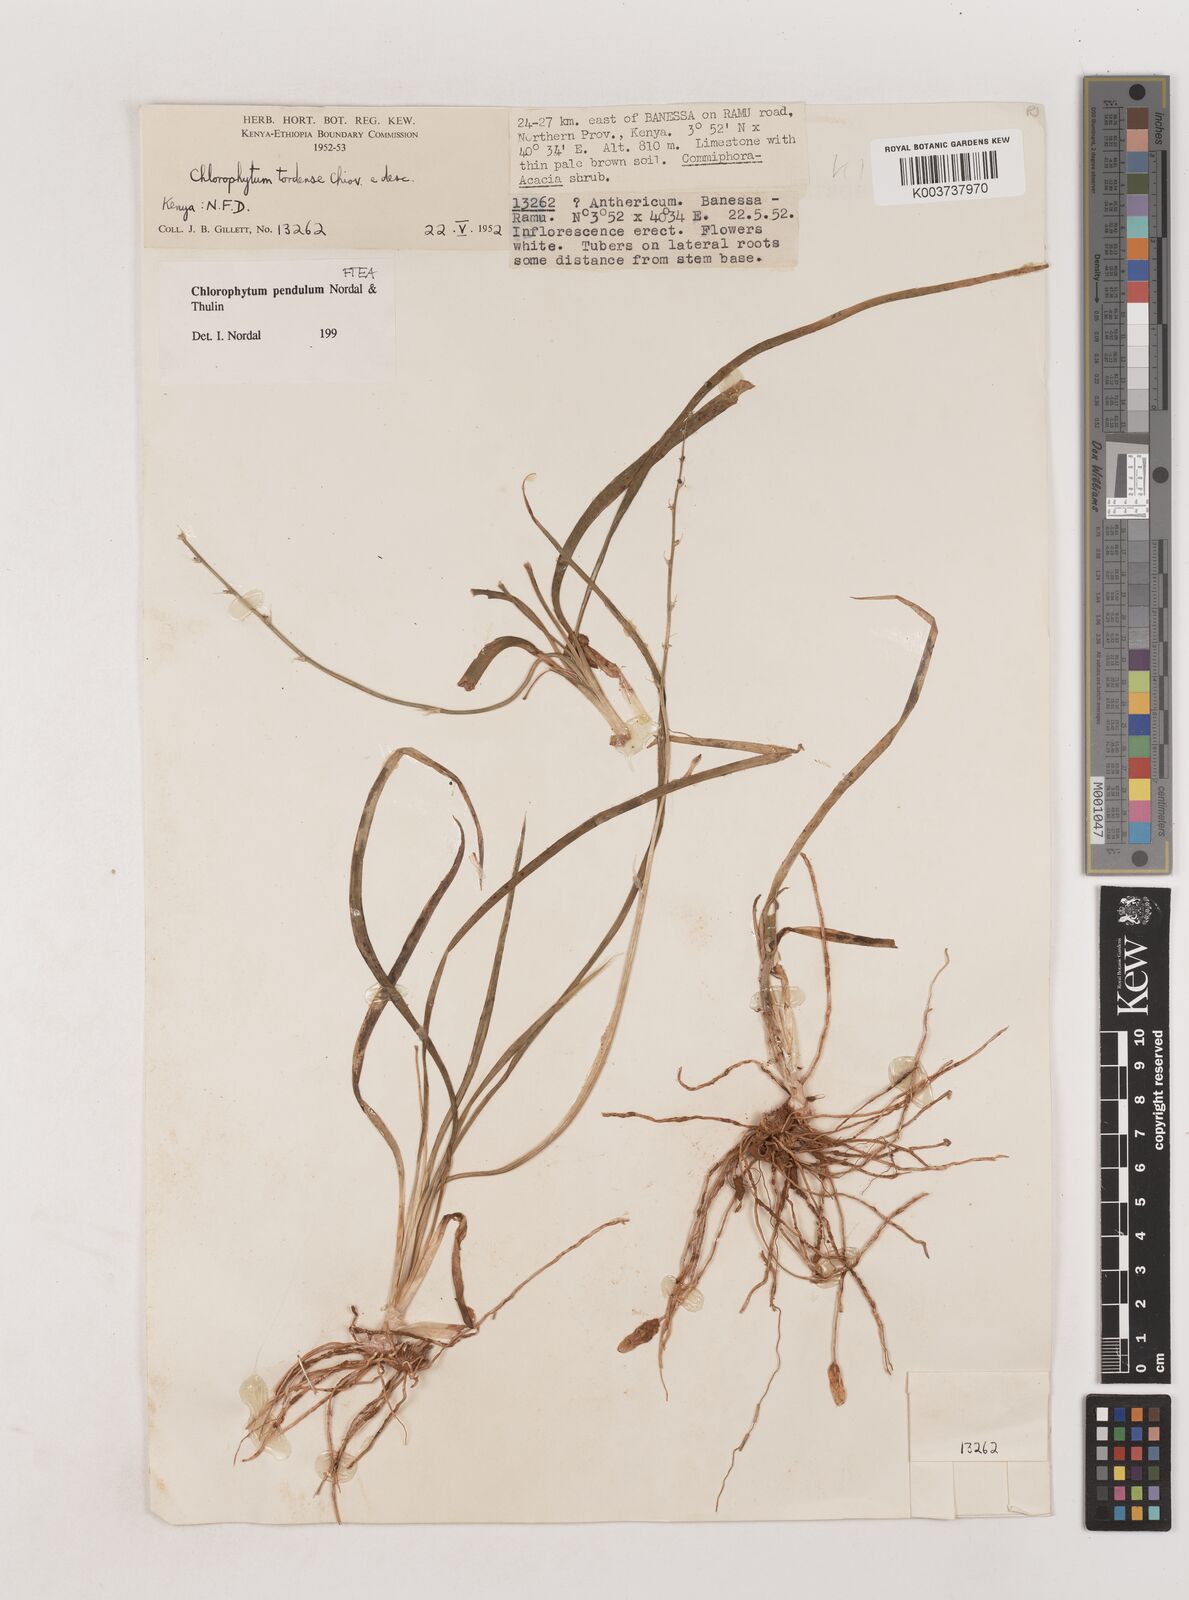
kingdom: Plantae
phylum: Tracheophyta
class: Liliopsida
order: Asparagales
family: Asparagaceae
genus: Chlorophytum
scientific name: Chlorophytum pendulum
